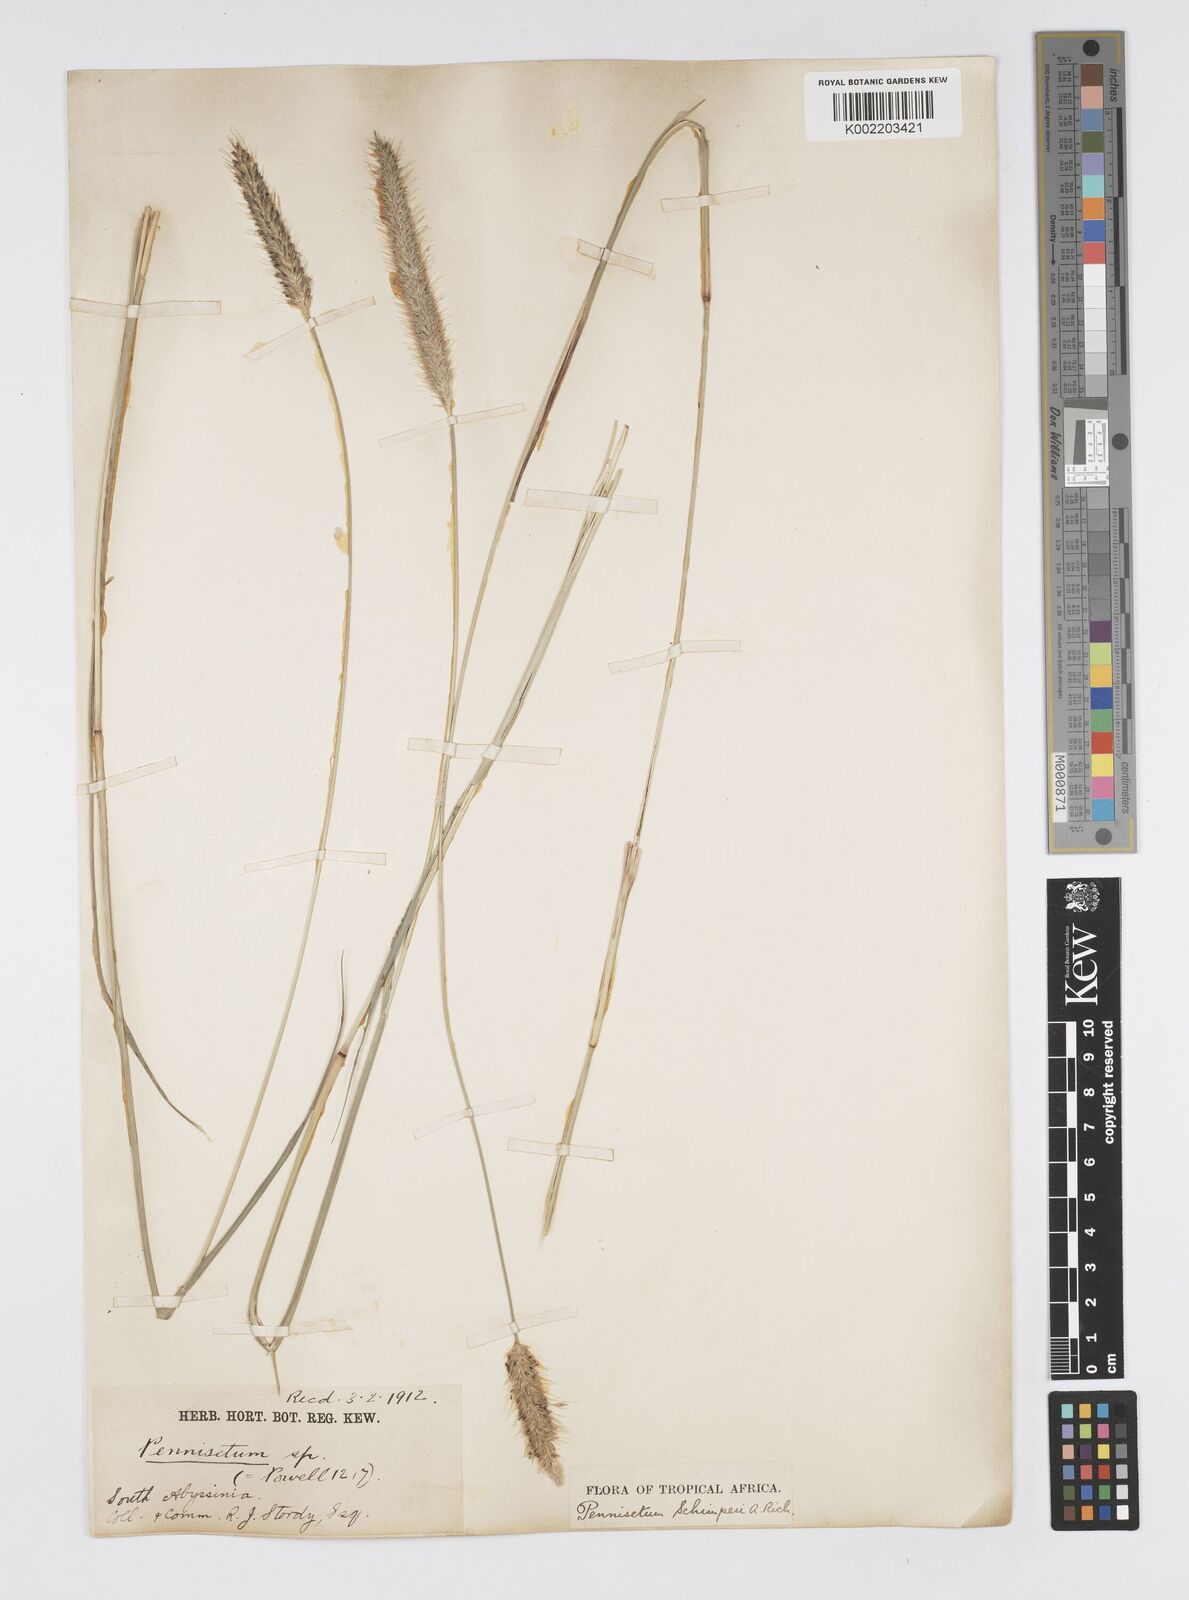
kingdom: Plantae
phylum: Tracheophyta
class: Liliopsida
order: Poales
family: Poaceae
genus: Cenchrus
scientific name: Cenchrus sphacelatus
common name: Bulgras
